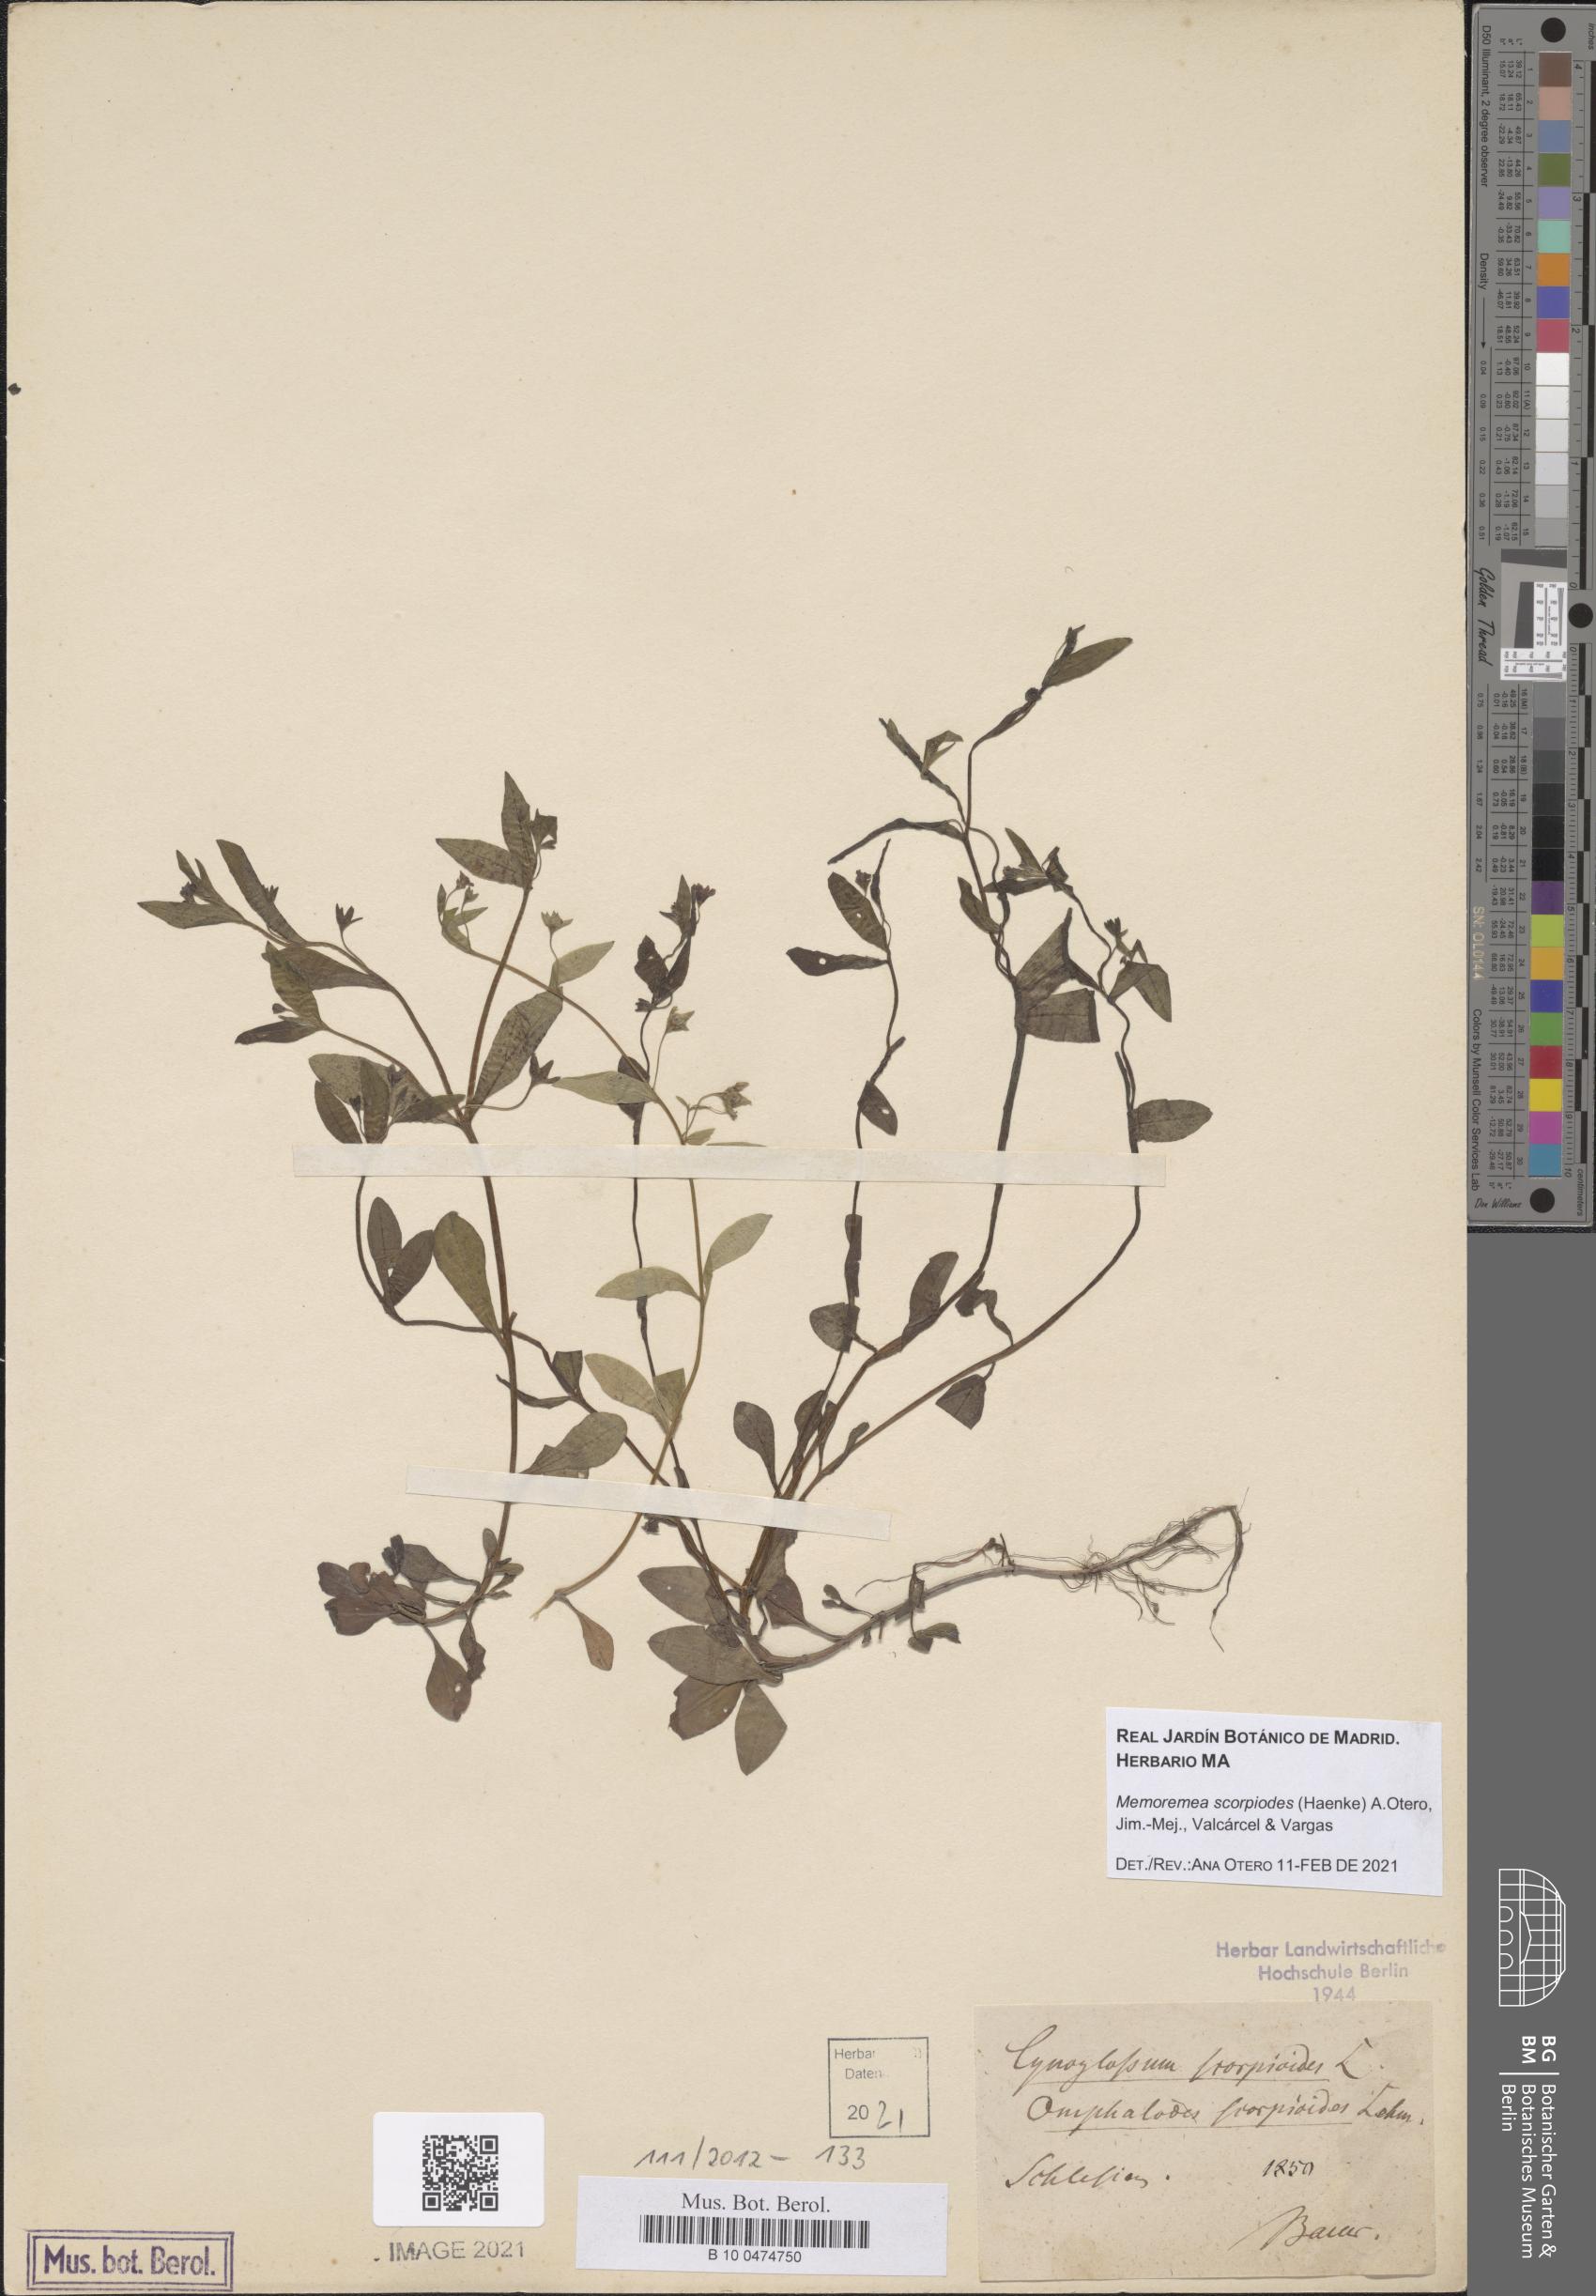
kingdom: Plantae
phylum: Tracheophyta
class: Magnoliopsida
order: Boraginales
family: Boraginaceae
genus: Memoremea
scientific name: Memoremea scorpioides
